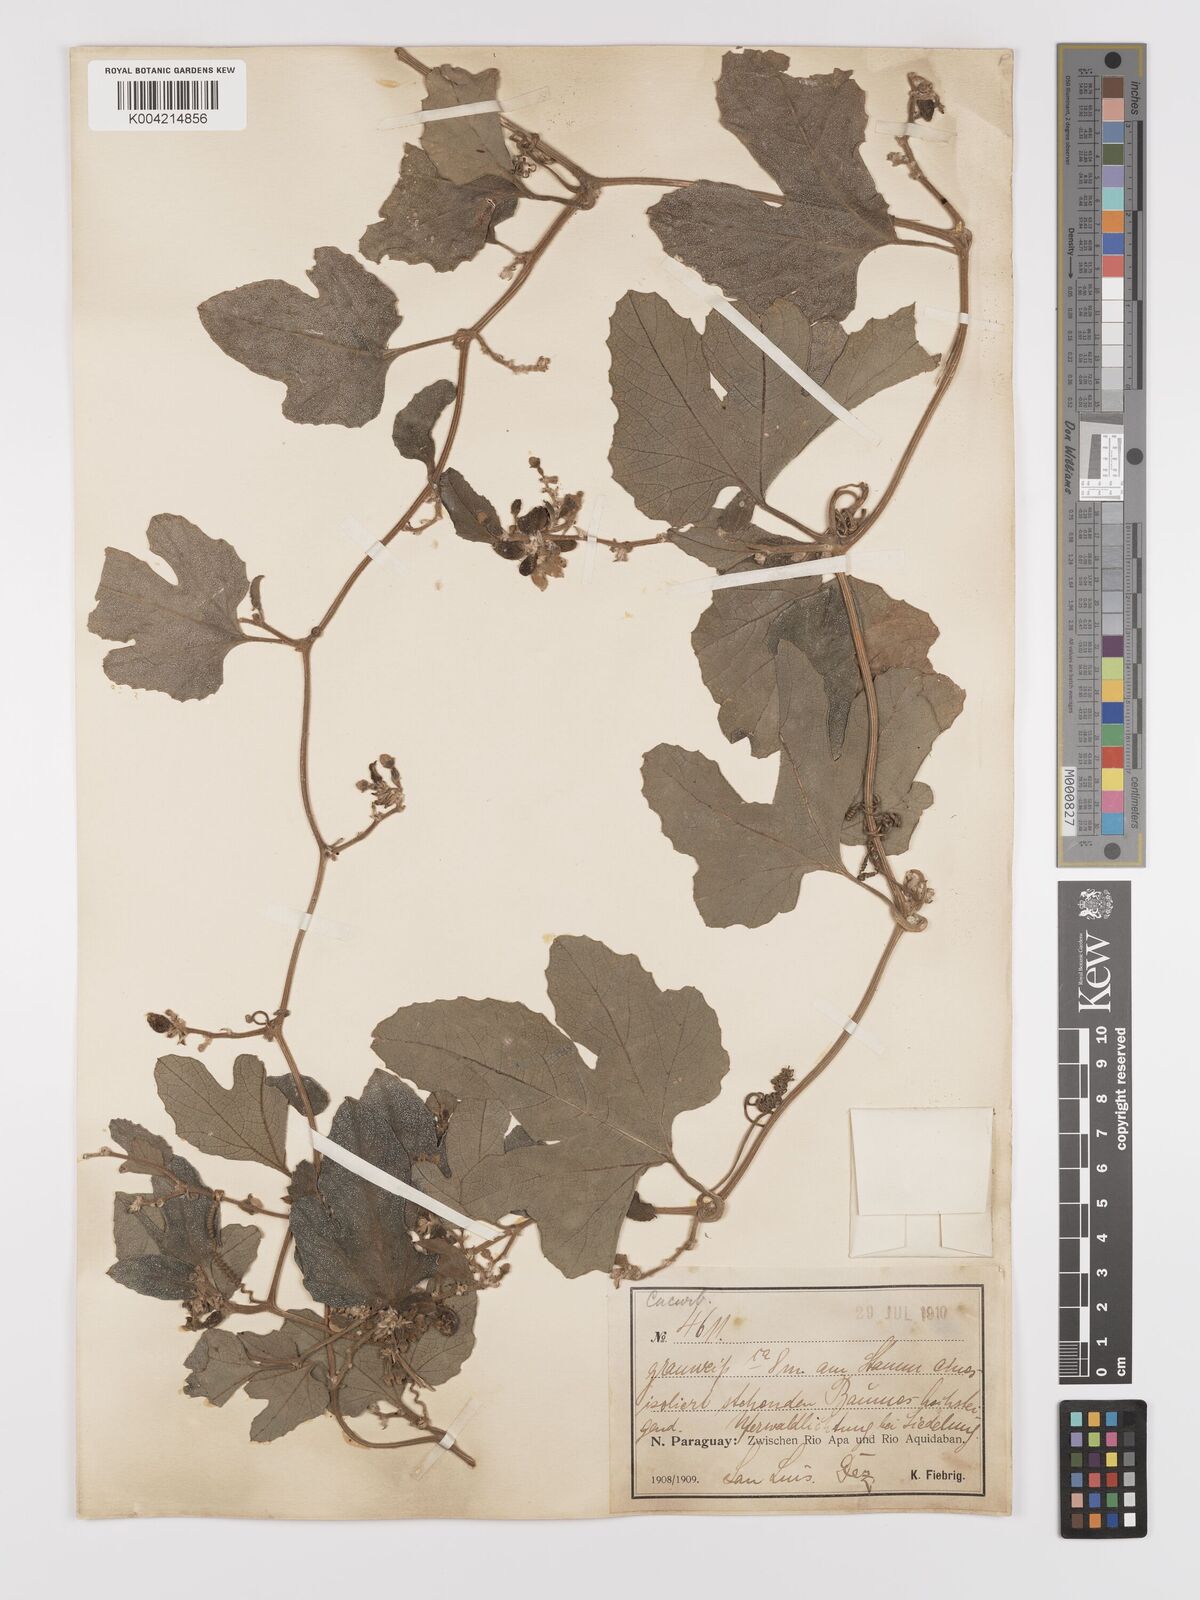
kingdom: Plantae
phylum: Tracheophyta
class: Magnoliopsida
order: Cucurbitales
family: Cucurbitaceae
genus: Cayaponia
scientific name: Cayaponia citrullifolia
